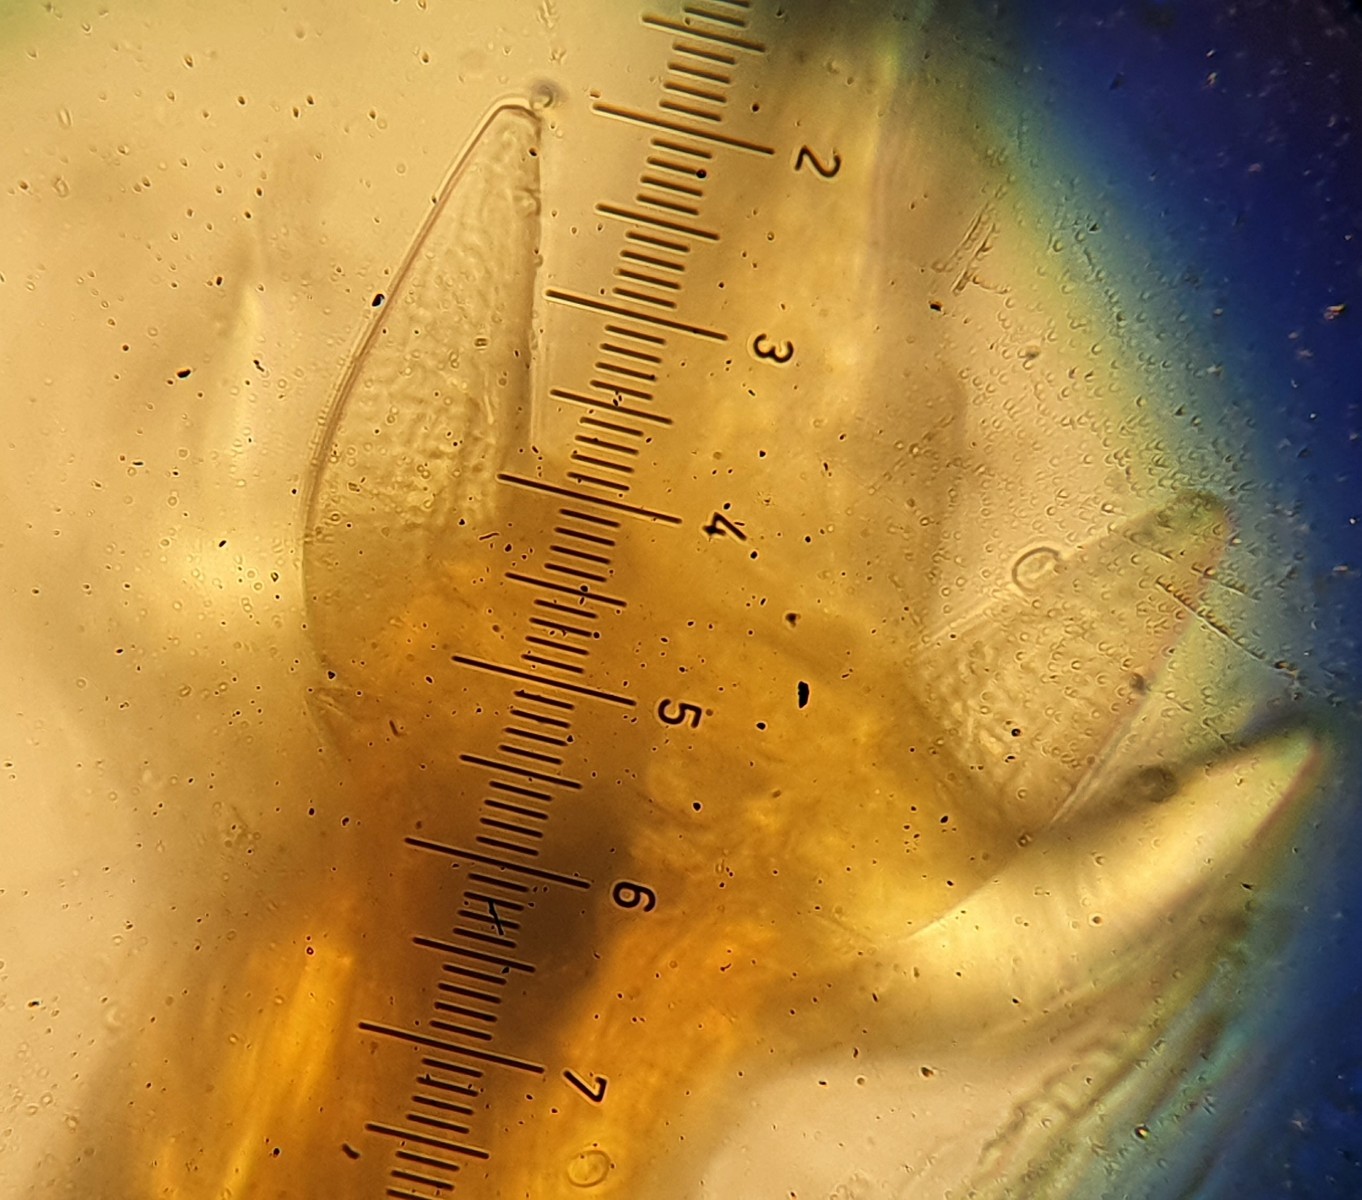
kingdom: Fungi
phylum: Basidiomycota
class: Agaricomycetes
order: Boletales
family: Hygrophoropsidaceae
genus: Hygrophoropsis
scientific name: Hygrophoropsis
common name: orangekantarel
